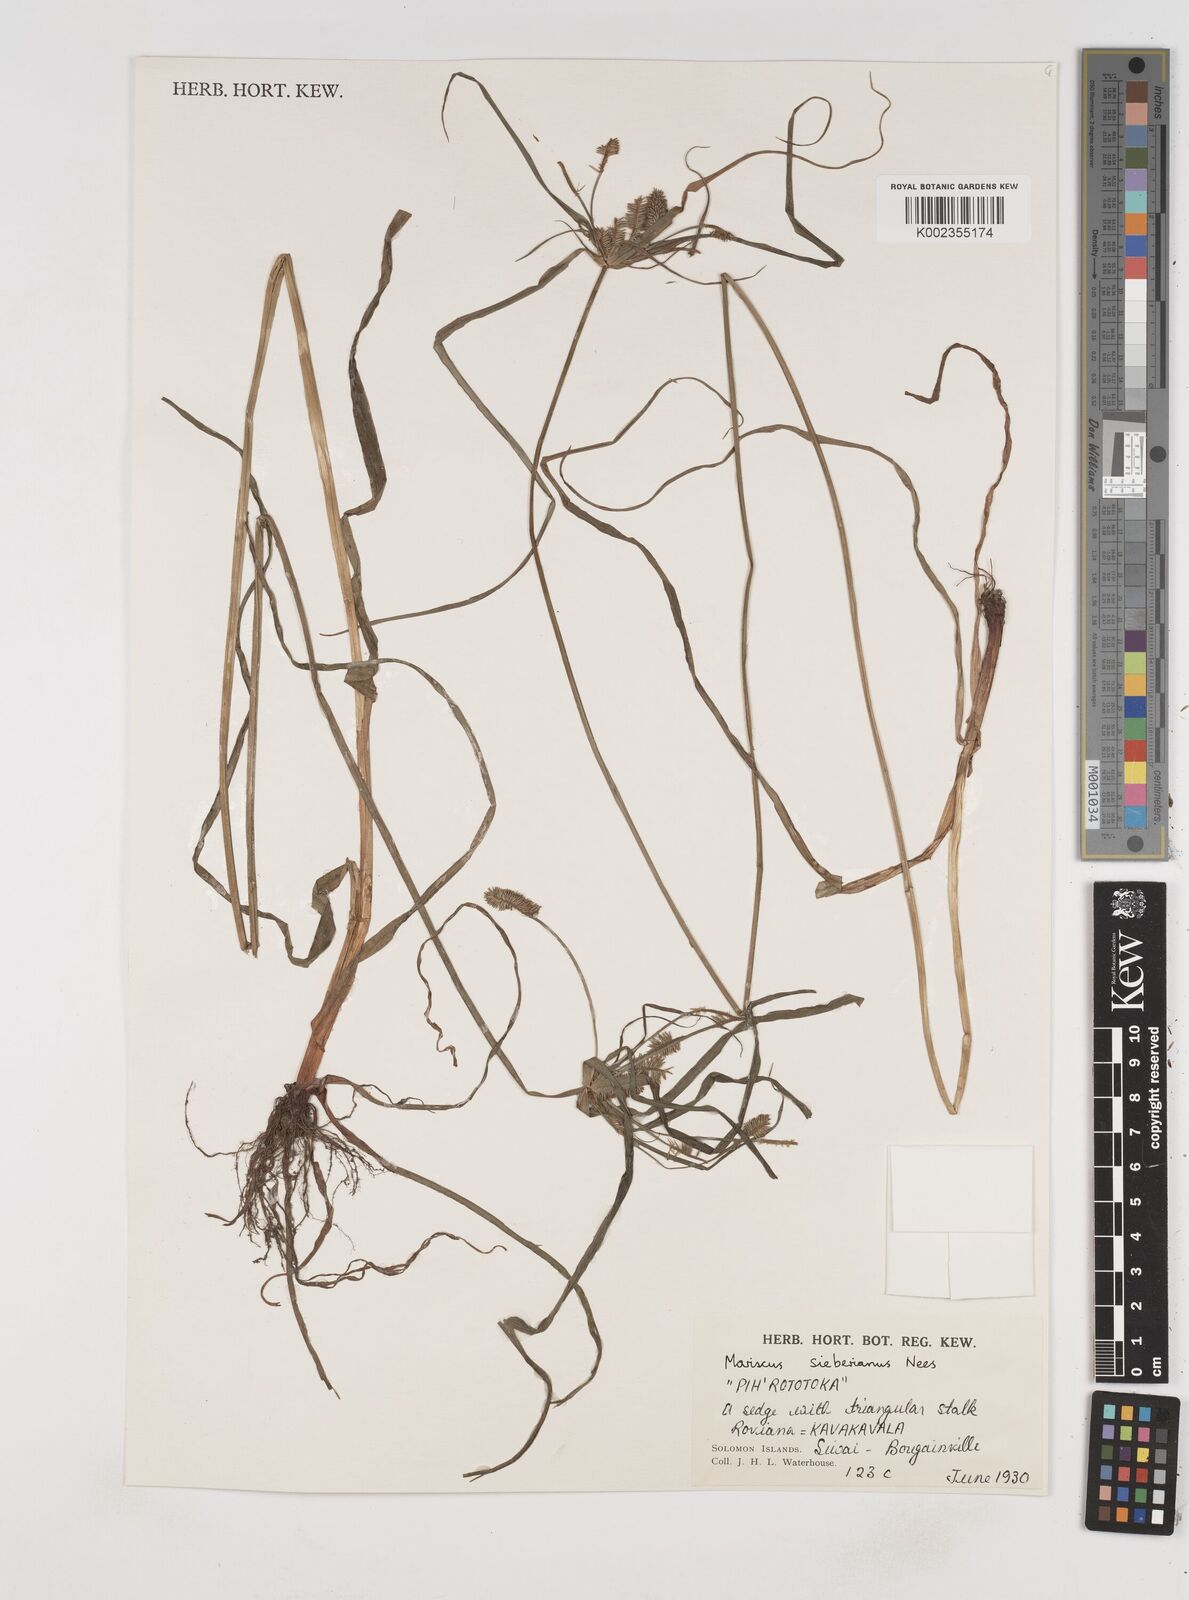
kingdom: Plantae
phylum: Tracheophyta
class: Liliopsida
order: Poales
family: Cyperaceae
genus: Cyperus
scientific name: Cyperus cyperoides
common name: Pacific island flat sedge
